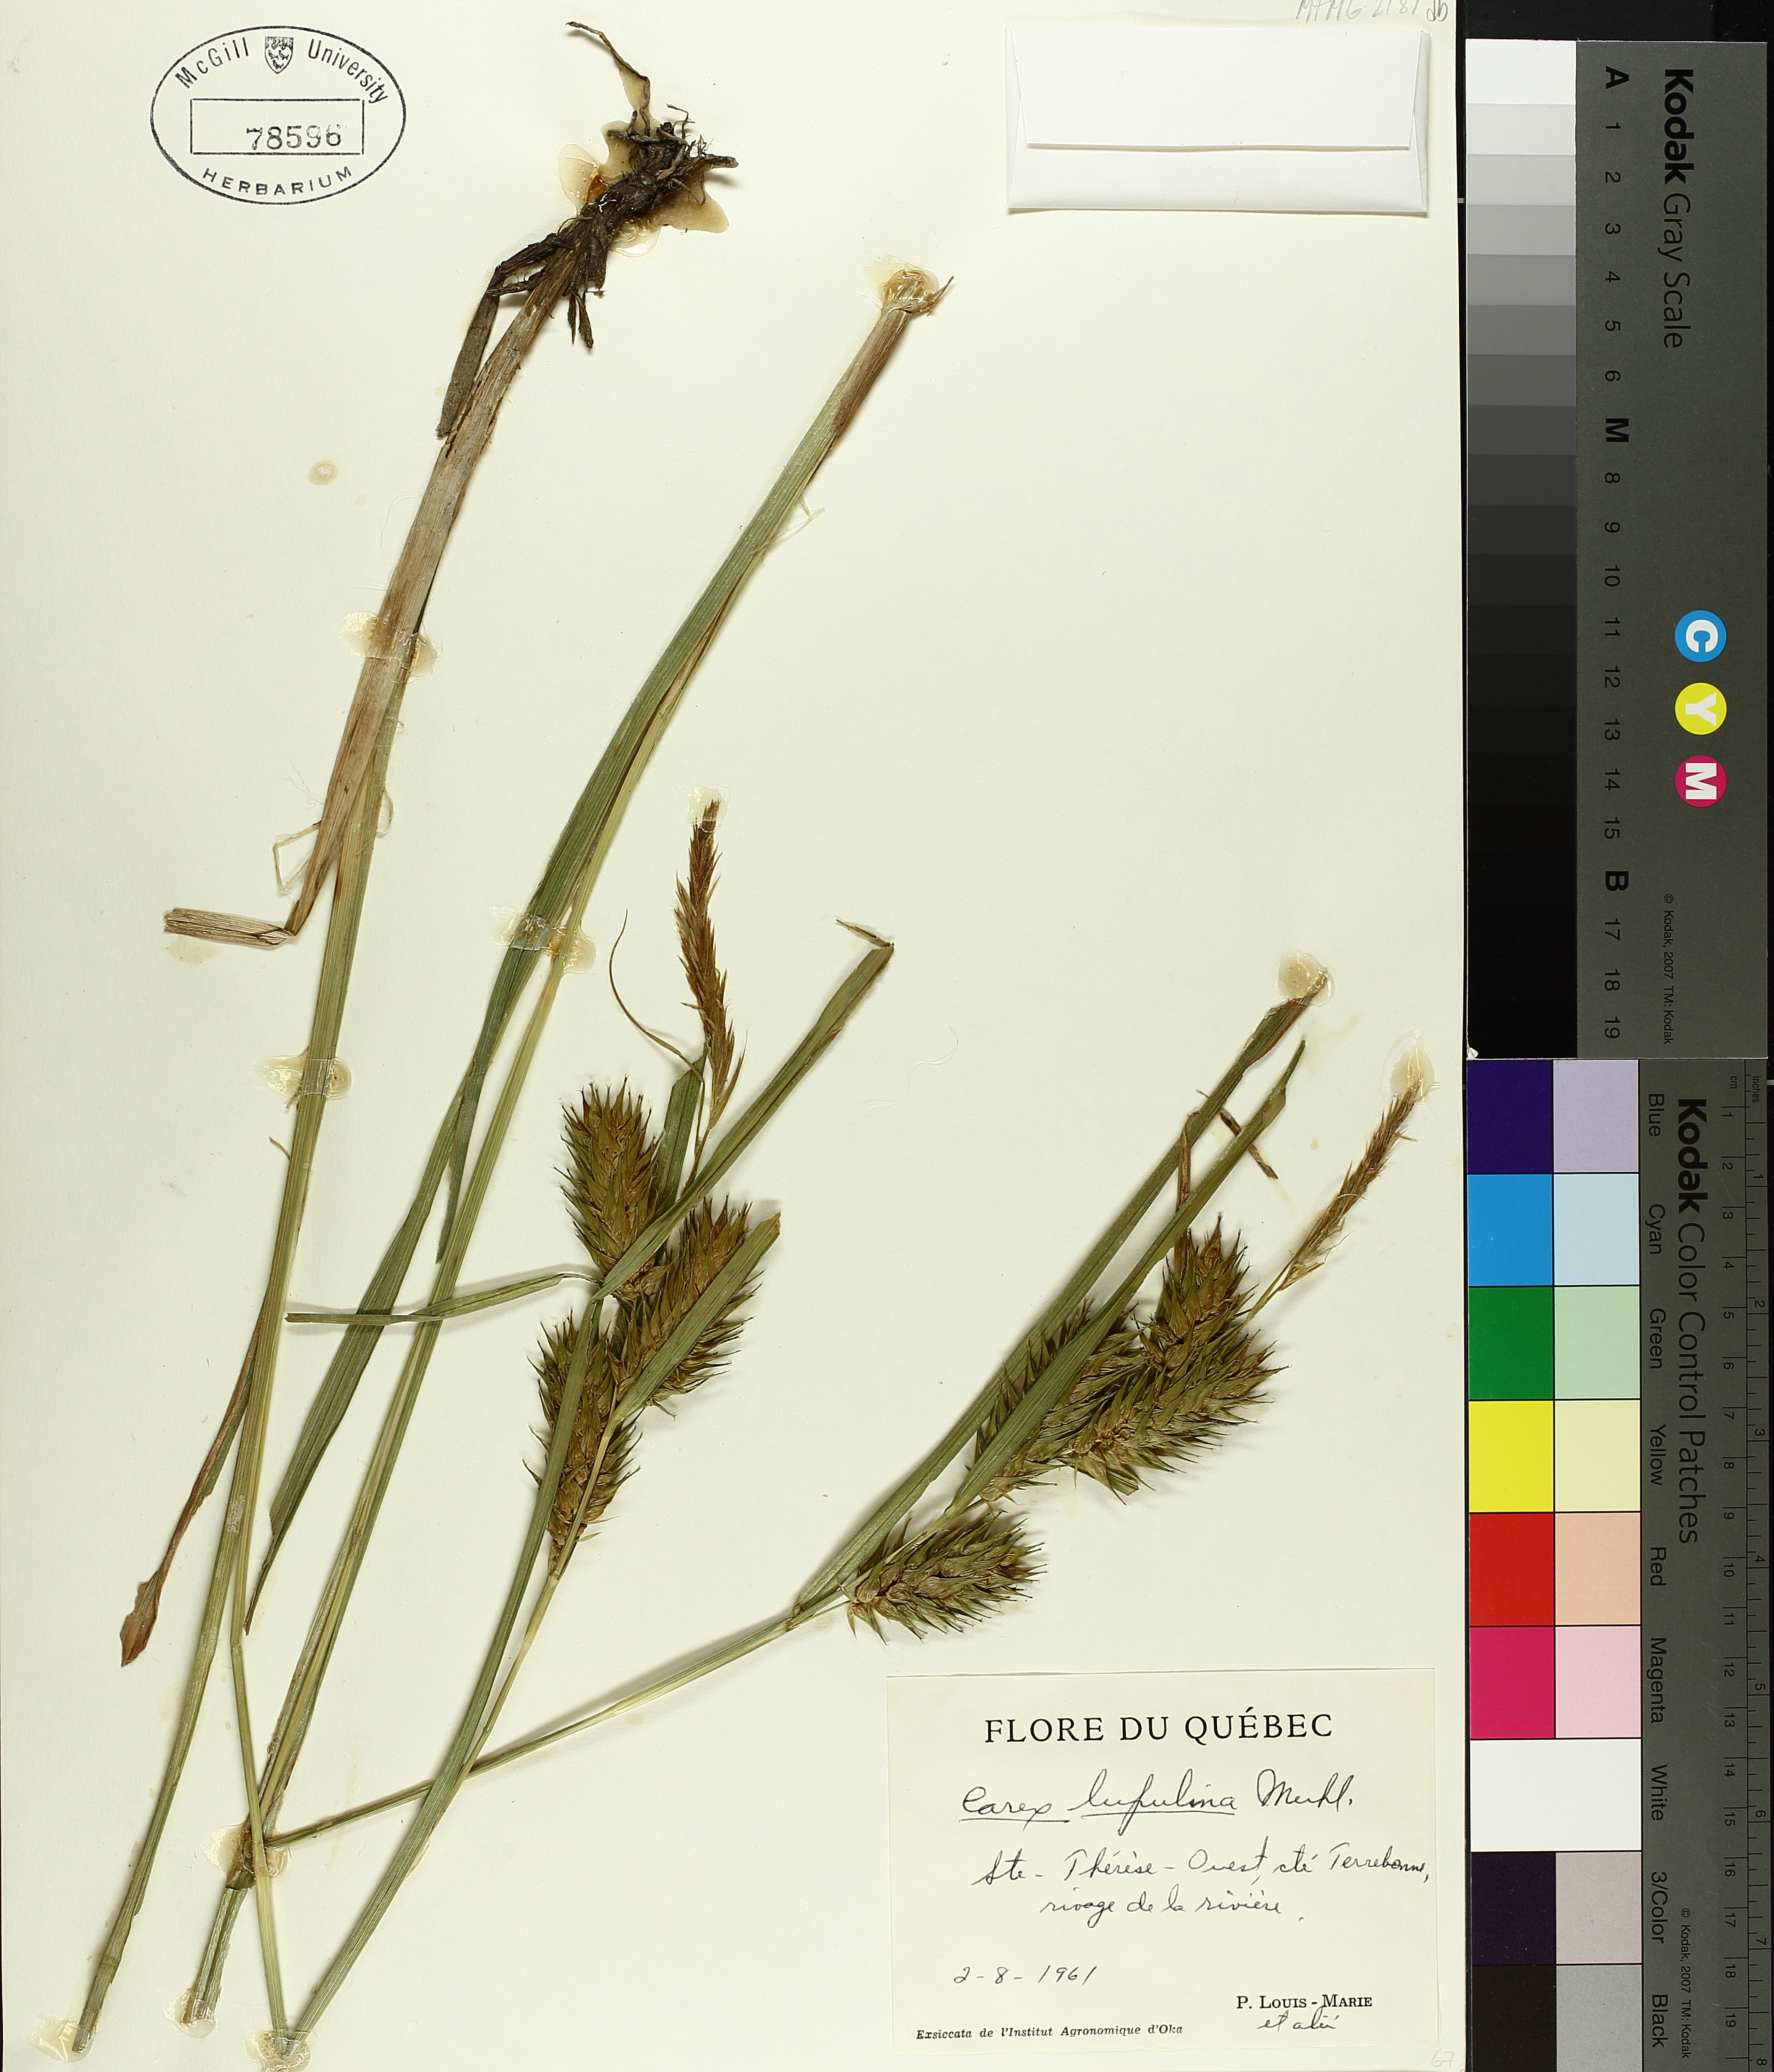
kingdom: Plantae
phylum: Tracheophyta
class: Liliopsida
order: Poales
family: Cyperaceae
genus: Carex
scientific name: Carex lupulina
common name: Hop sedge
